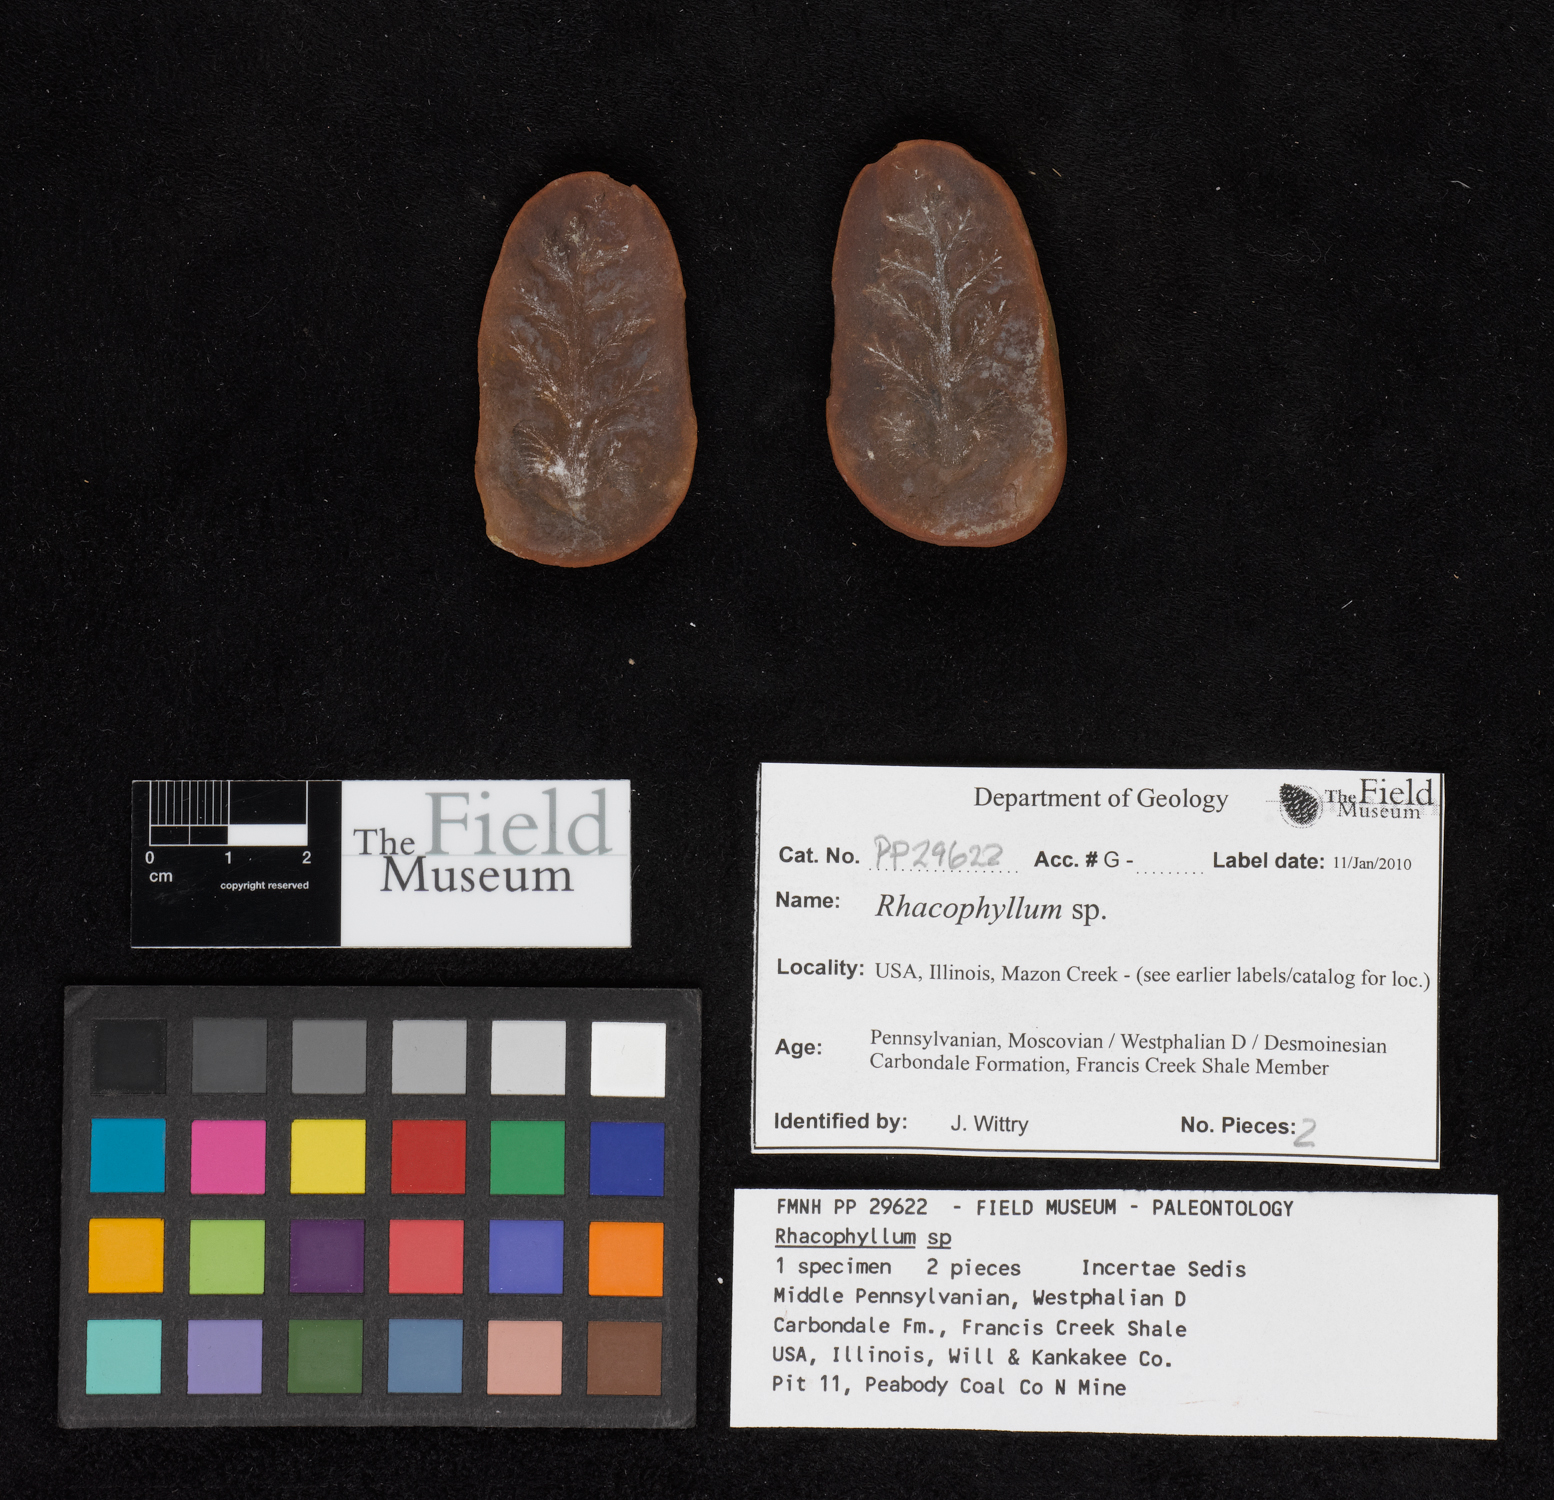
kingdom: Plantae
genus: Rhacophyllum
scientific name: Rhacophyllum
